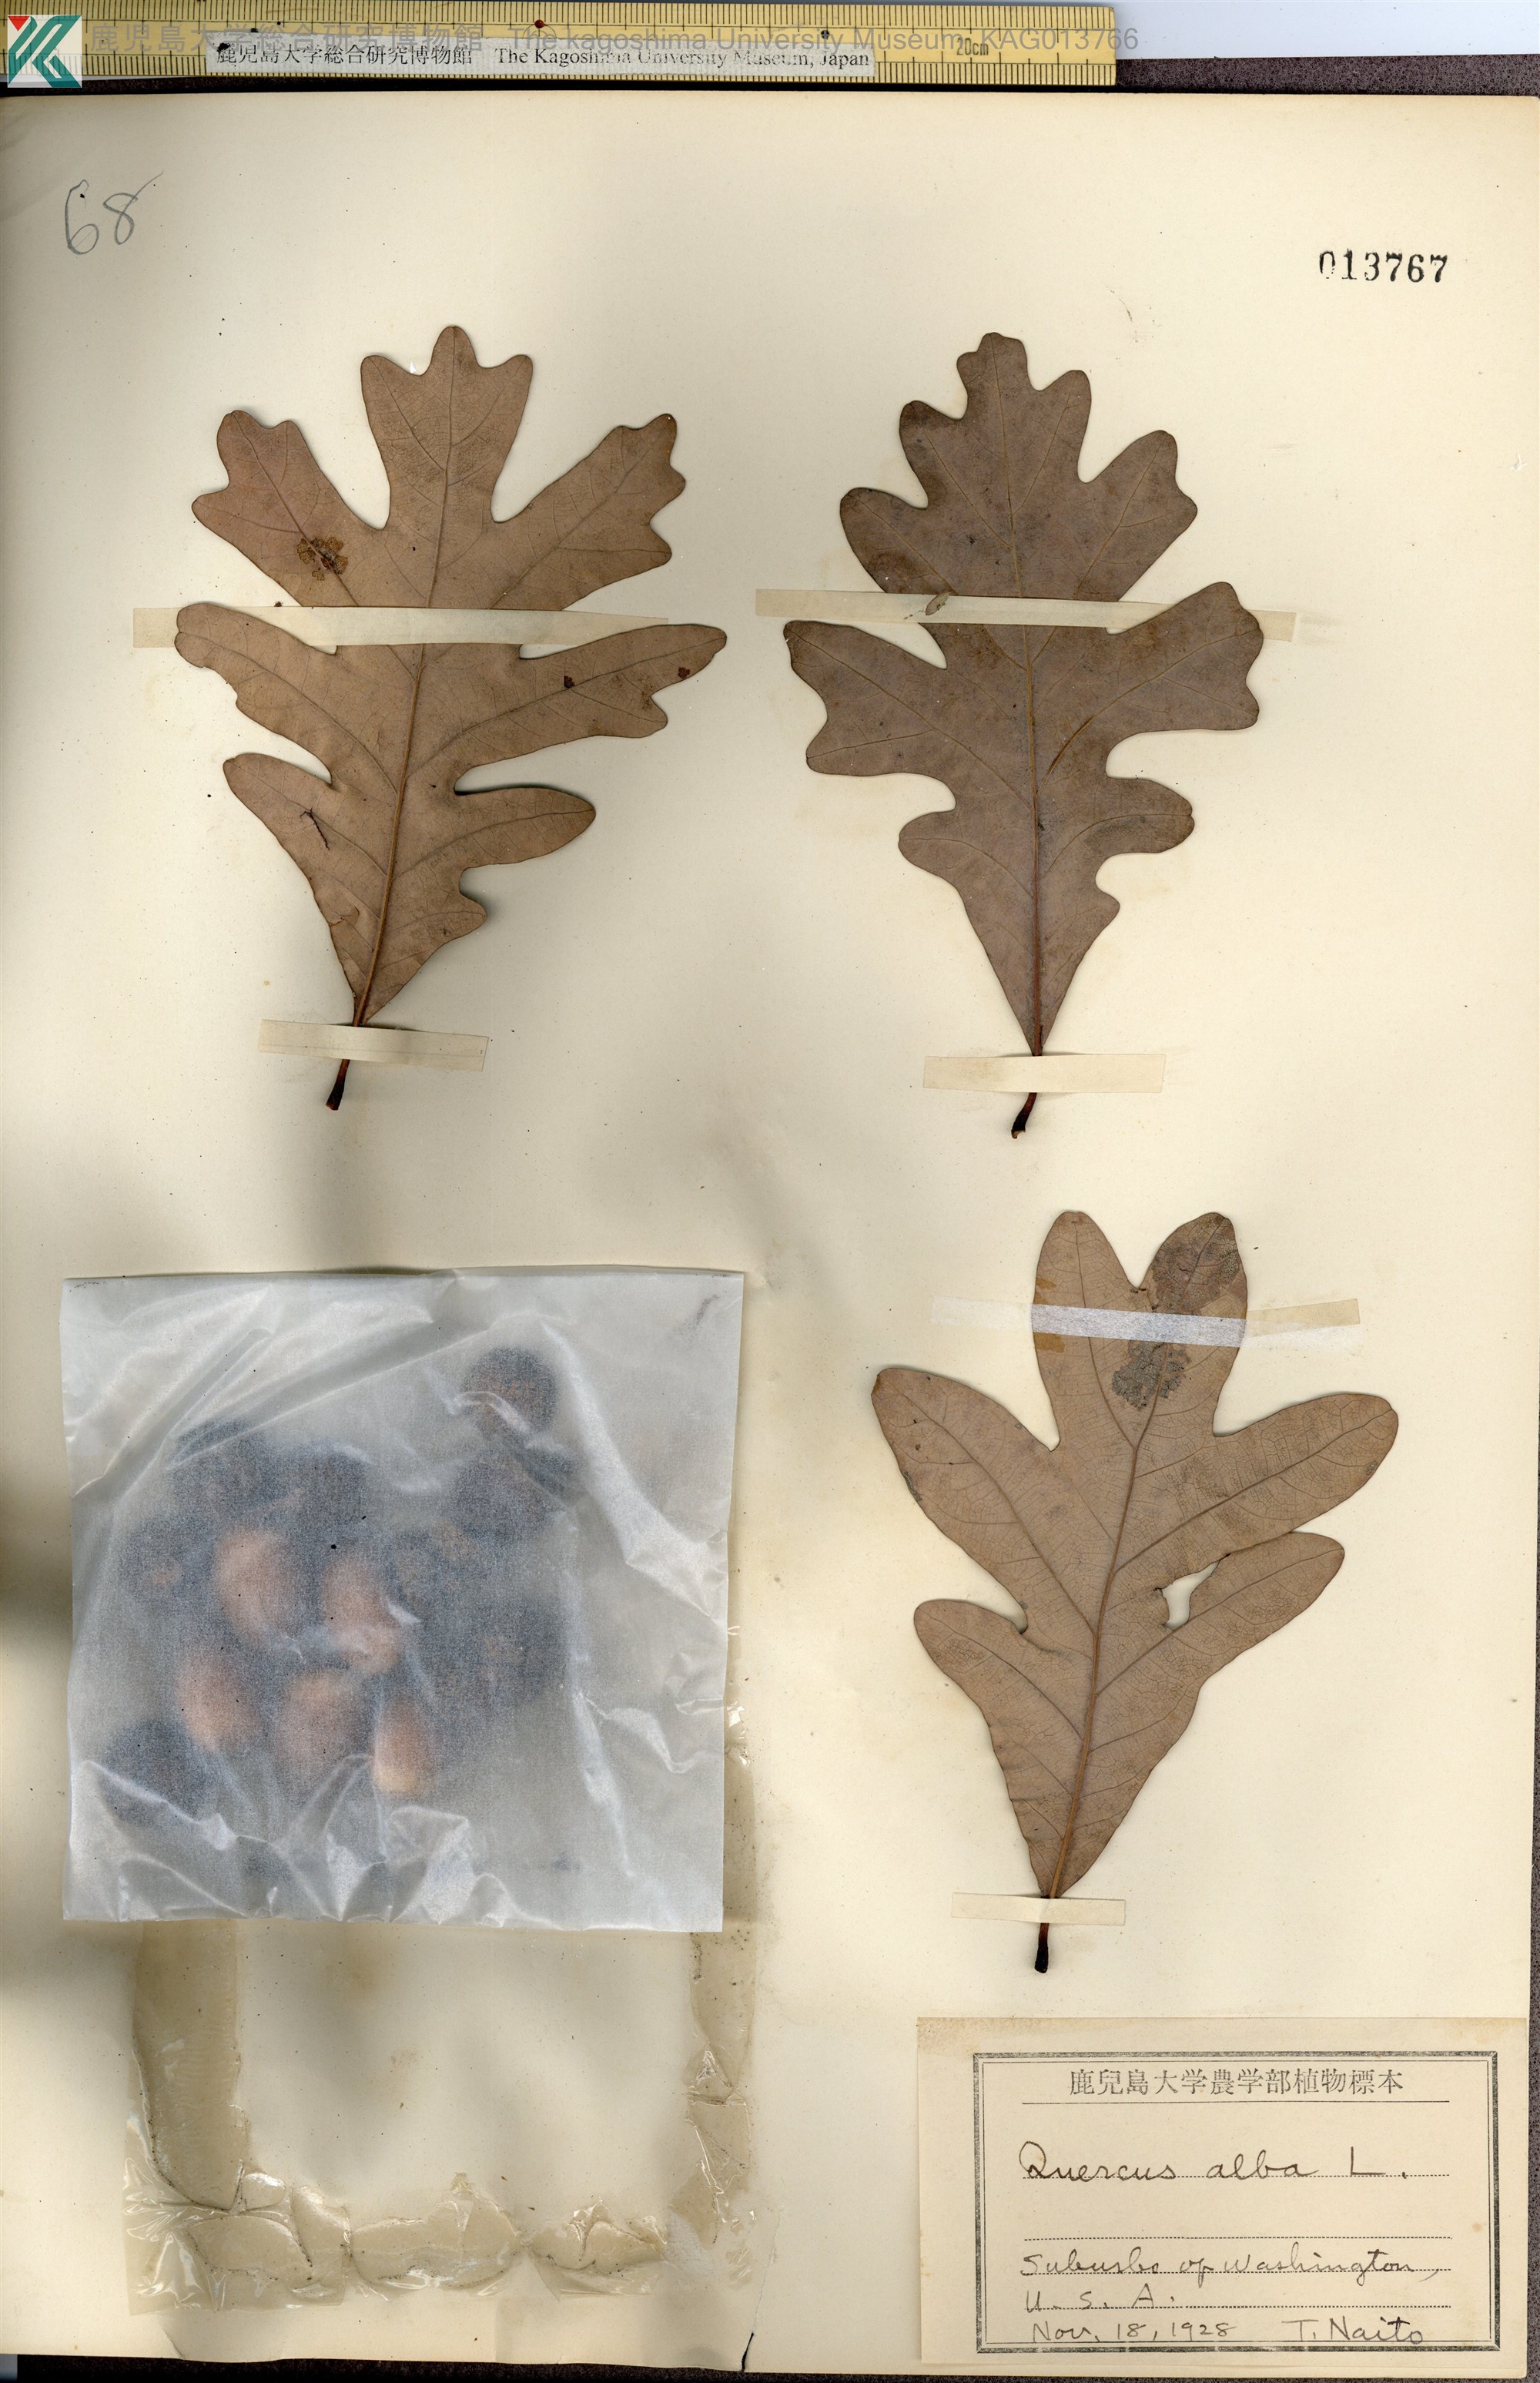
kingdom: Plantae
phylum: Tracheophyta
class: Magnoliopsida
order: Fagales
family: Fagaceae
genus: Quercus
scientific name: Quercus alba
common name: White oak
